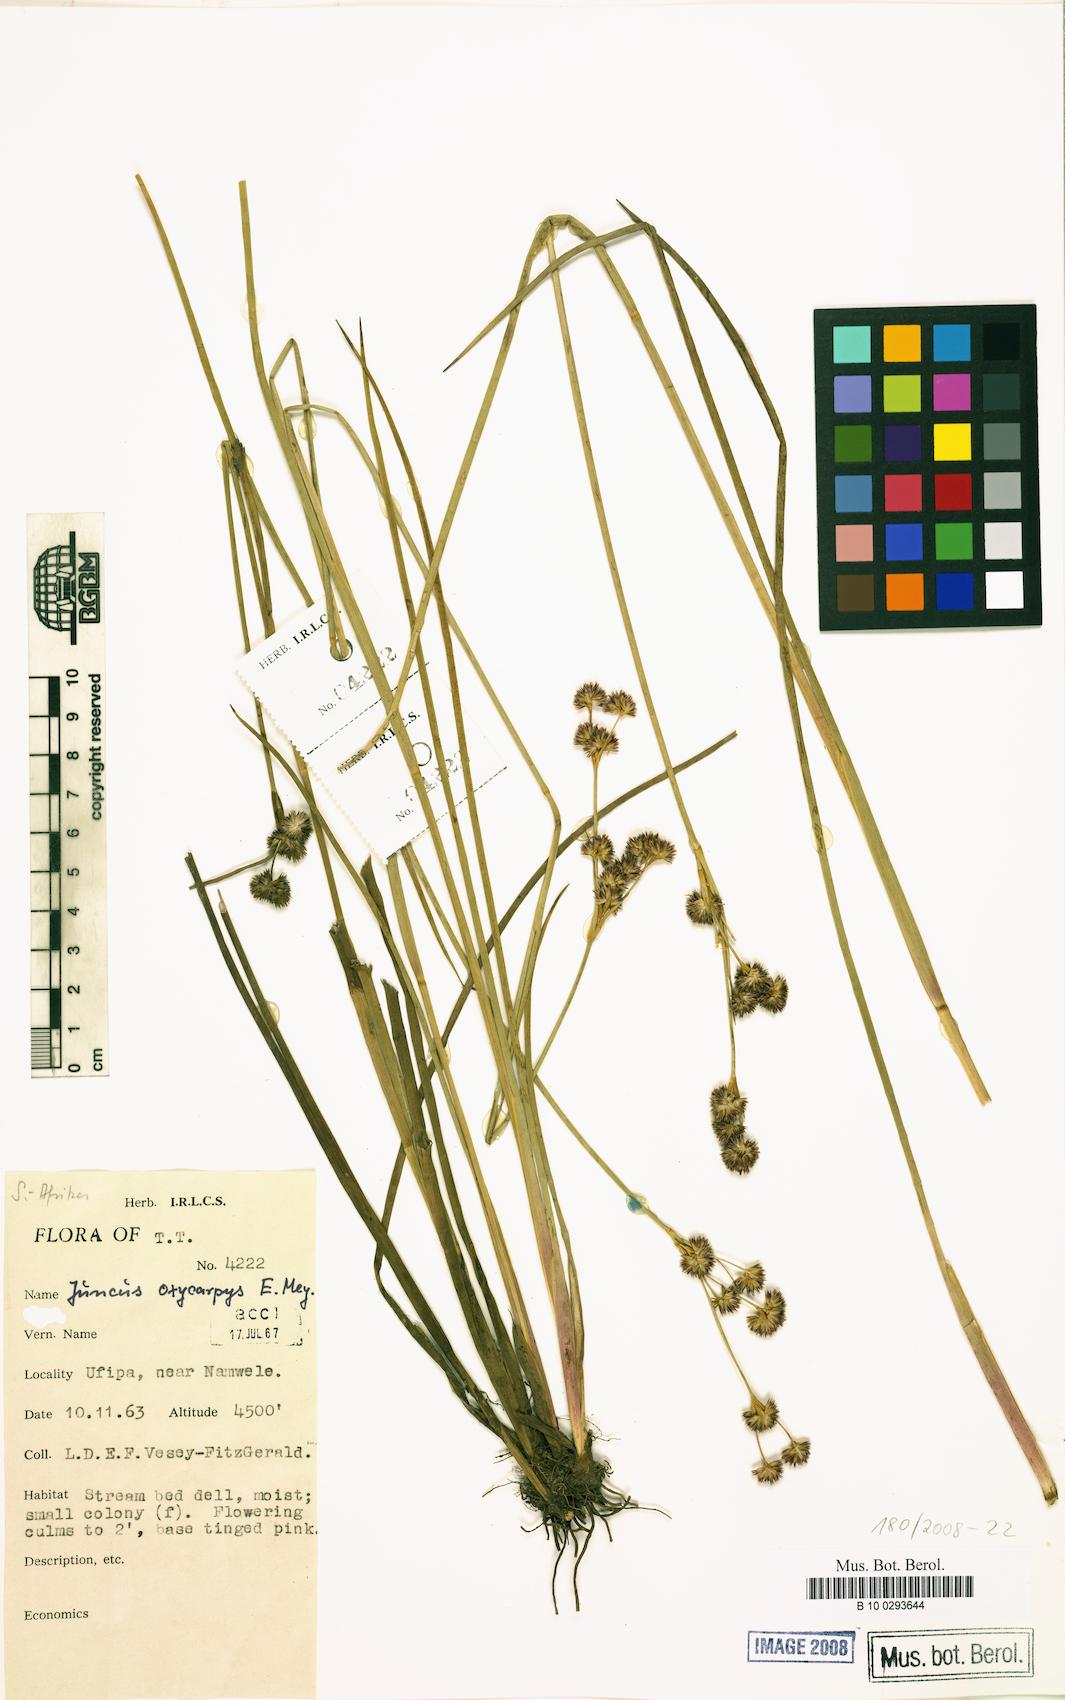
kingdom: Plantae
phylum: Tracheophyta
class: Liliopsida
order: Poales
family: Juncaceae
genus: Juncus
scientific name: Juncus oxycarpus
